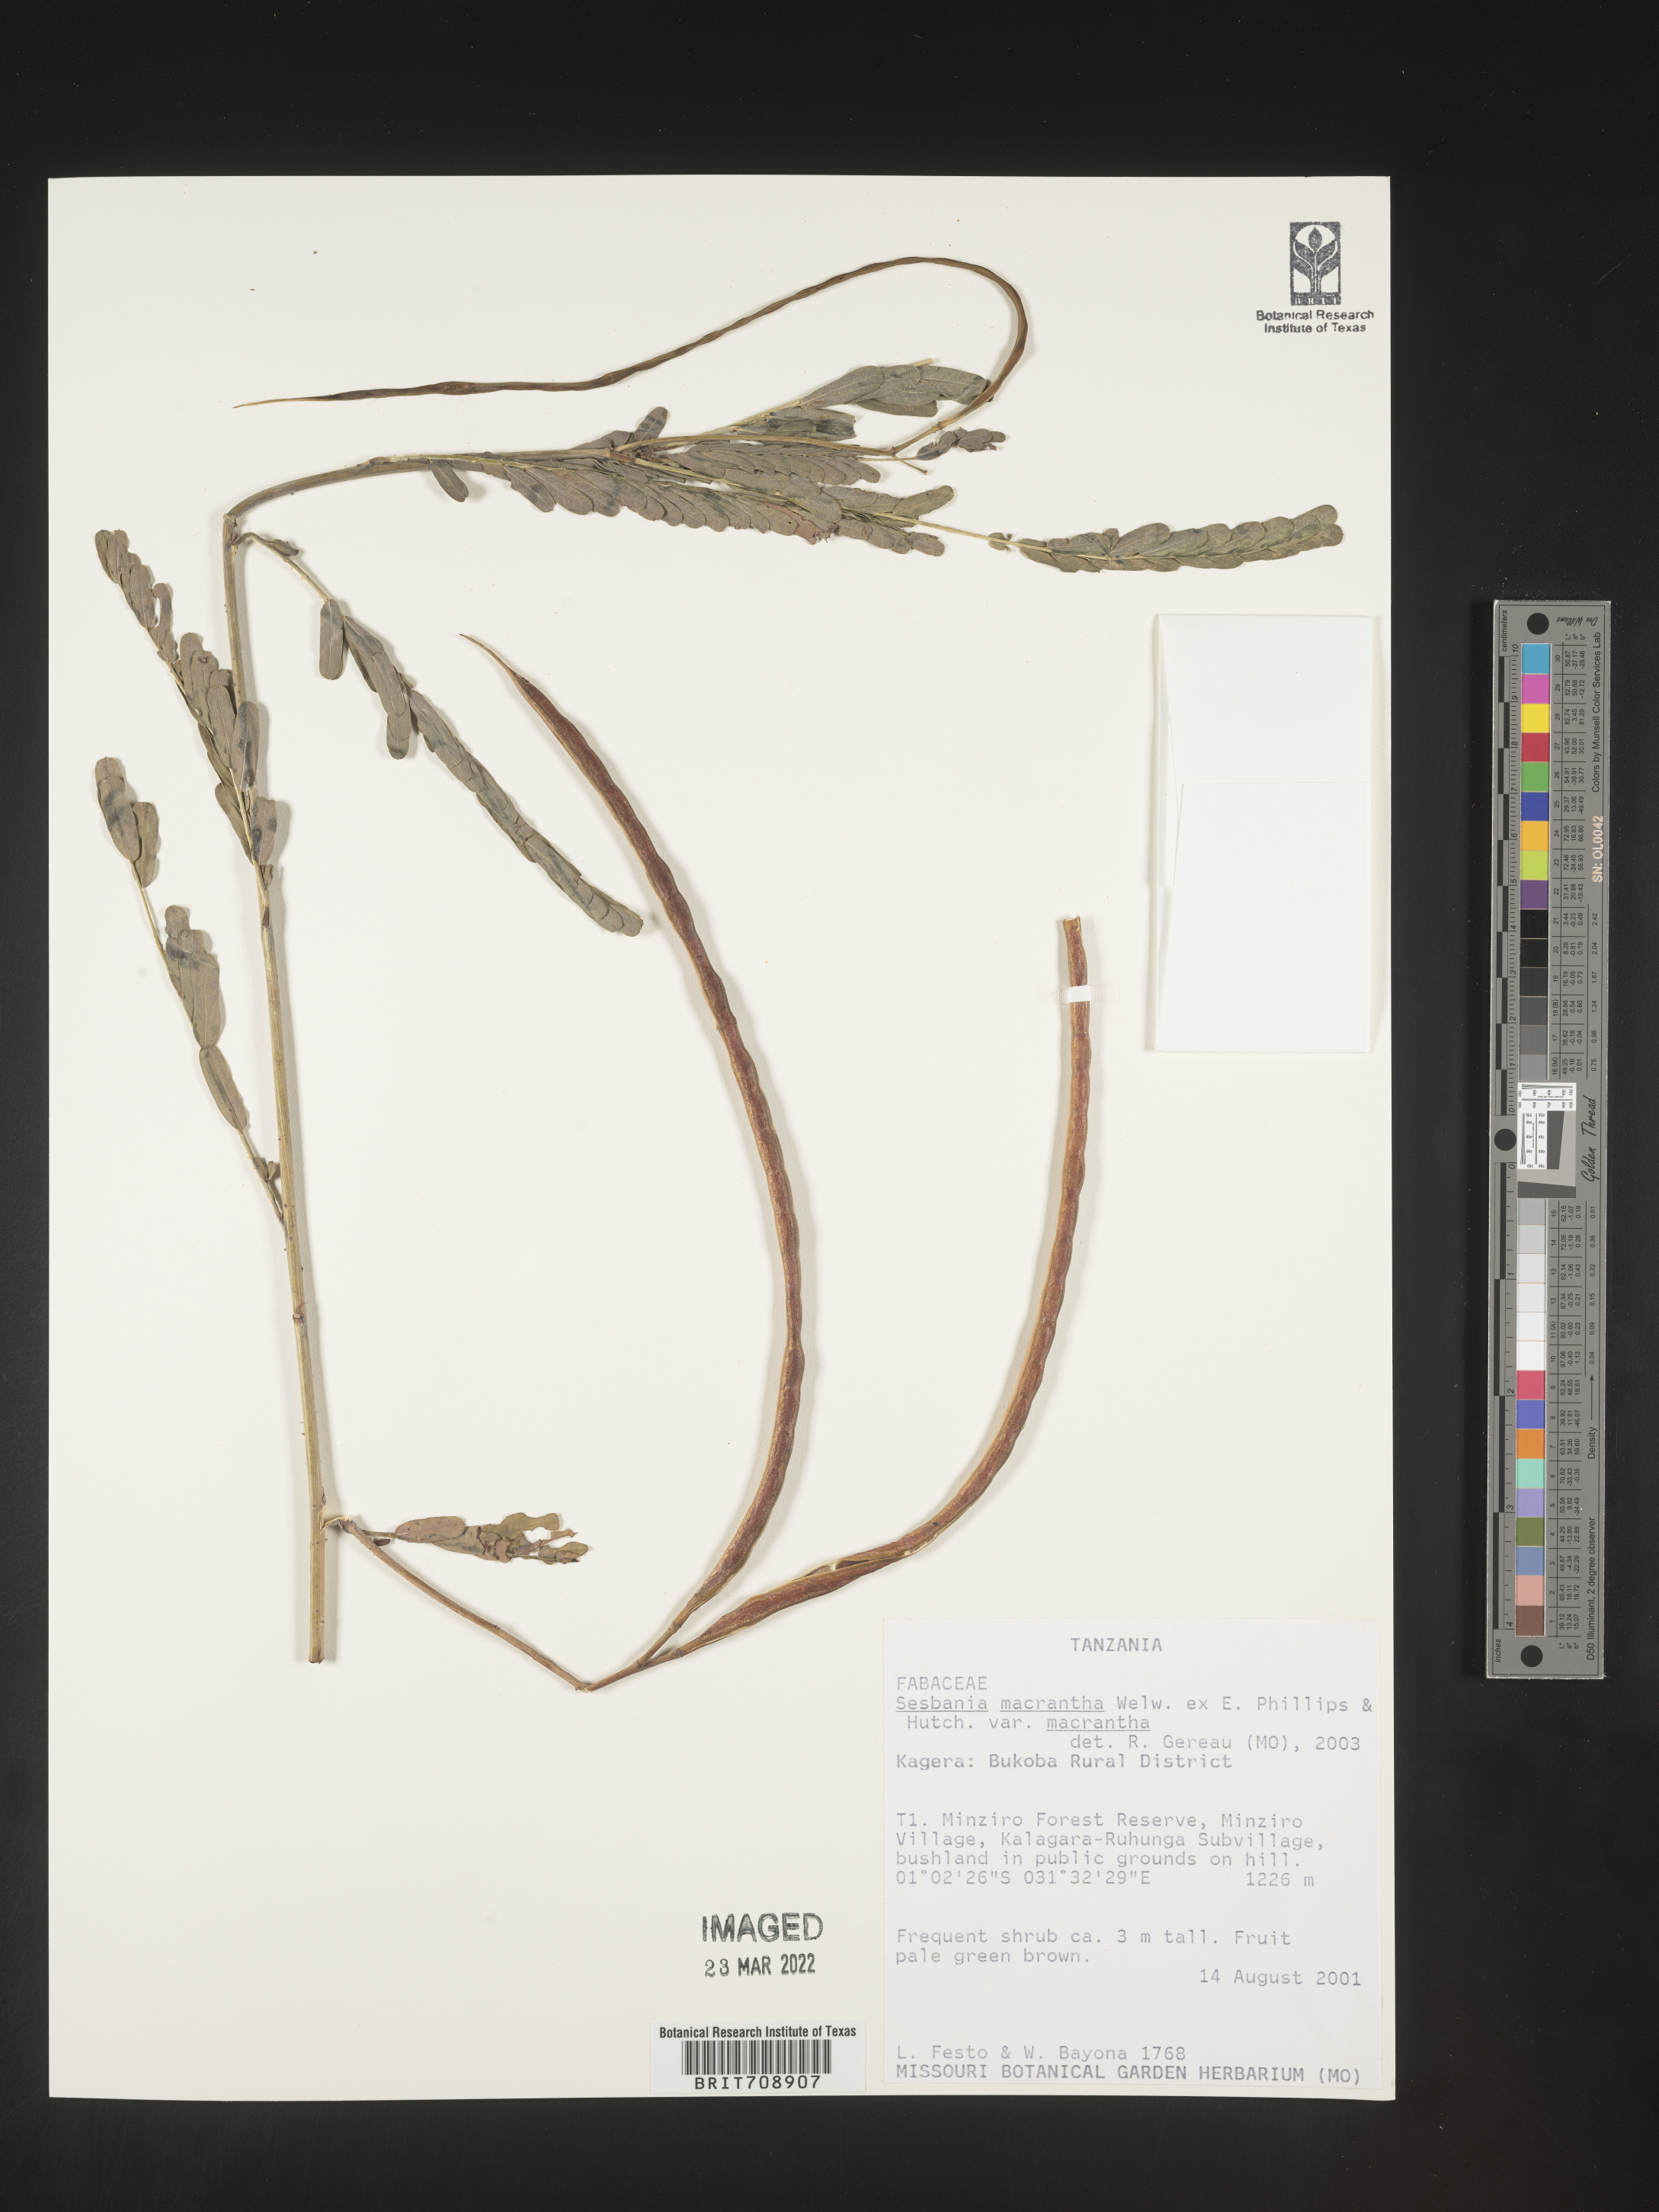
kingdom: Plantae
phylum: Tracheophyta
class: Magnoliopsida
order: Fabales
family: Fabaceae
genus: Sesbania
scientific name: Sesbania
